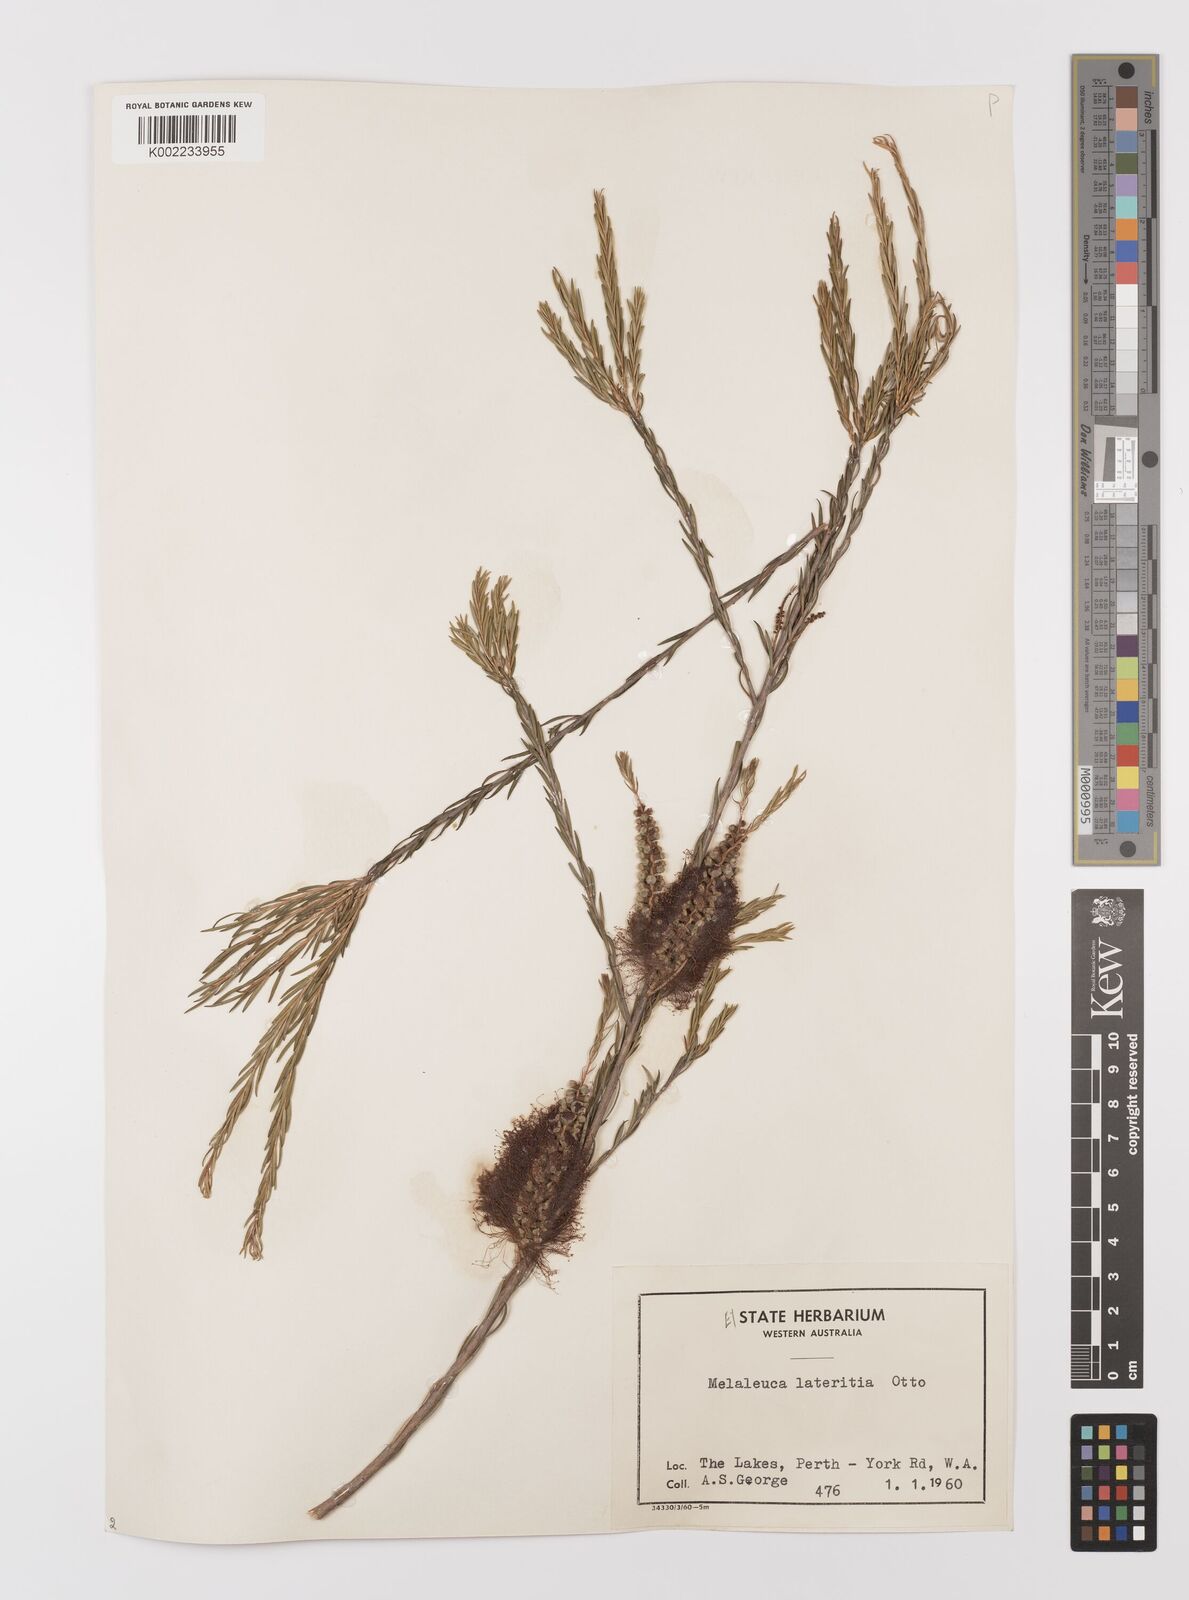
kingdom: Plantae
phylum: Tracheophyta
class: Magnoliopsida
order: Myrtales
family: Myrtaceae
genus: Melaleuca
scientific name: Melaleuca lateritia
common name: Robin red-breast
